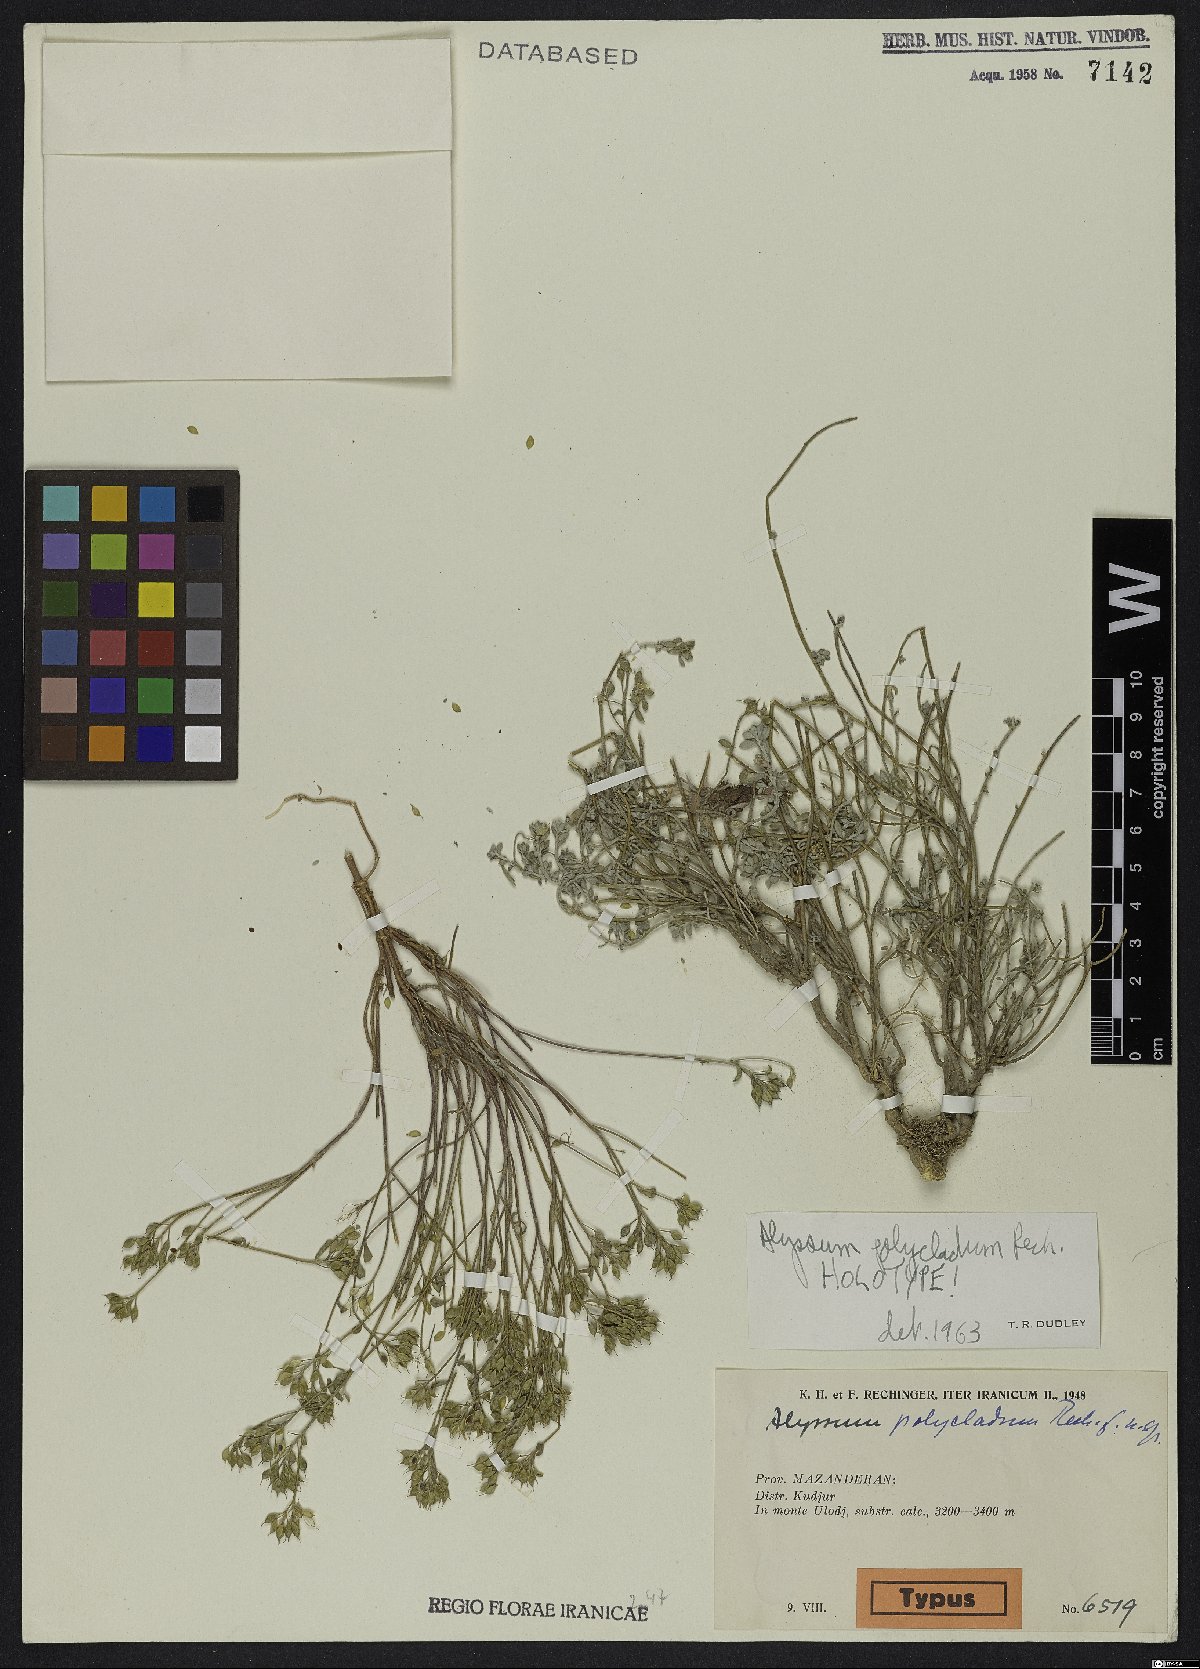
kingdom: Plantae
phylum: Tracheophyta
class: Magnoliopsida
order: Brassicales
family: Brassicaceae
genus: Odontarrhena
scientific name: Odontarrhena polyclada
